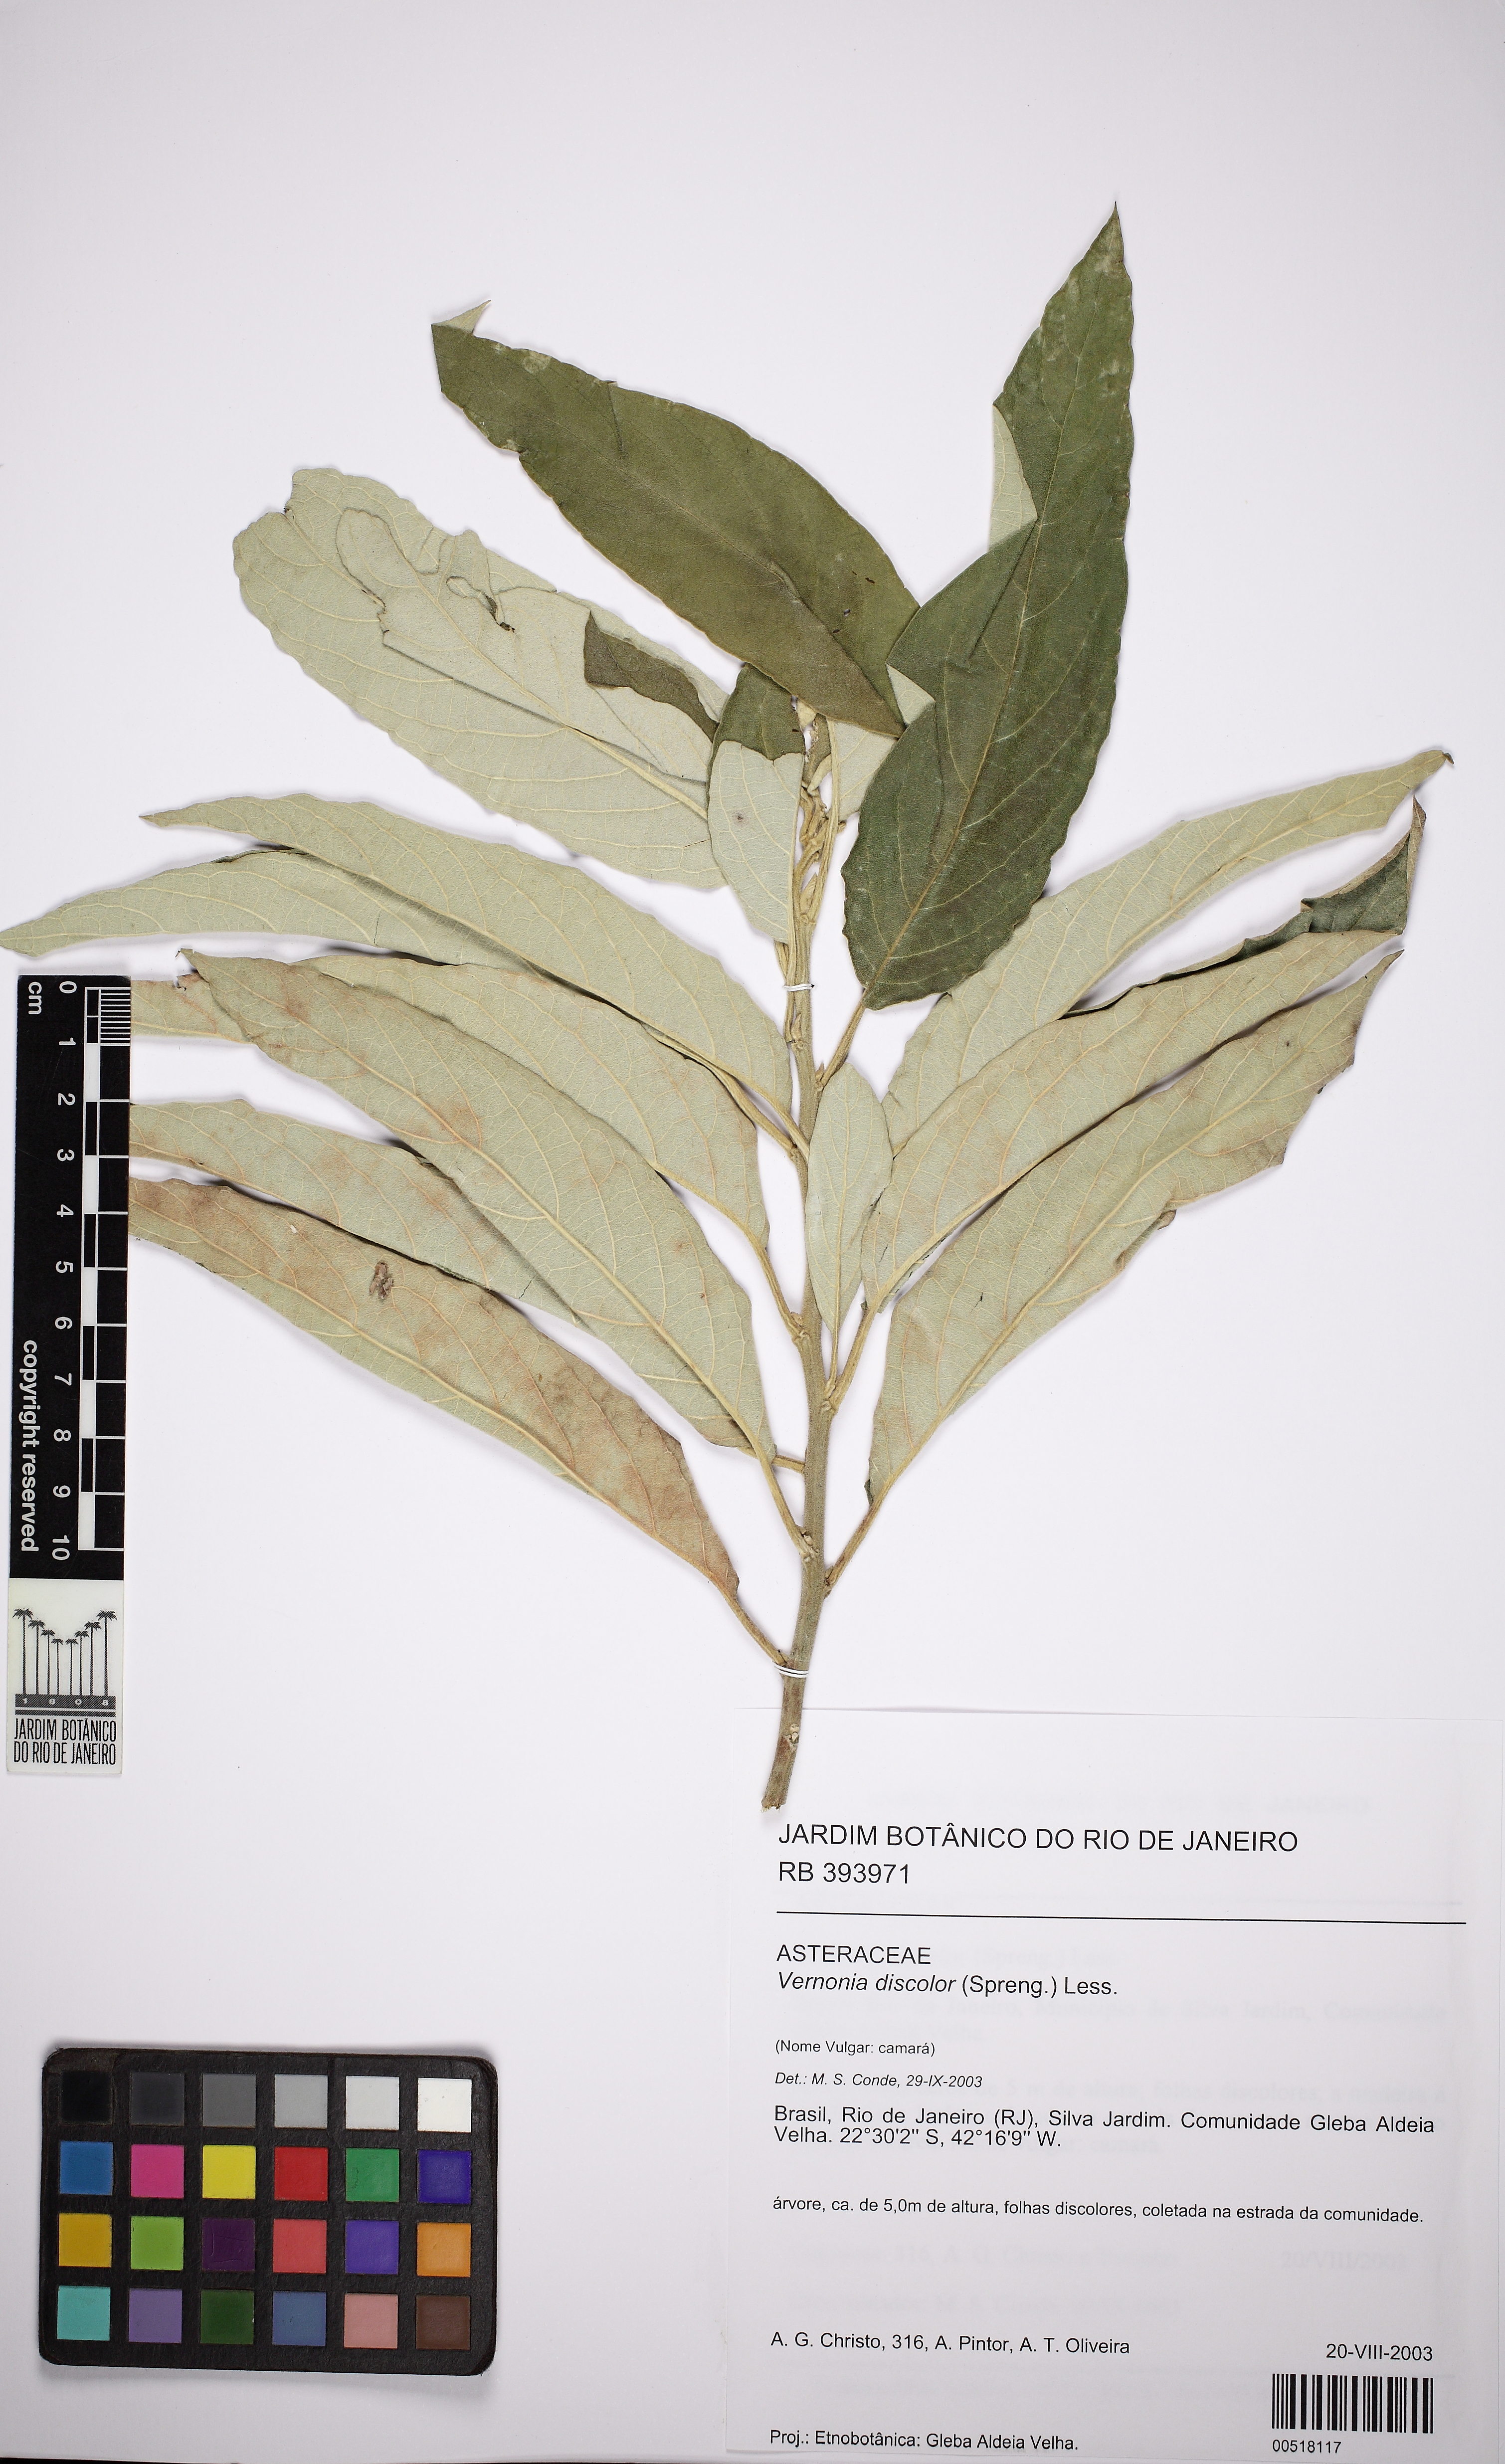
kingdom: Plantae
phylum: Tracheophyta
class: Magnoliopsida
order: Asterales
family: Asteraceae
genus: Vernonanthura
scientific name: Vernonanthura discolor
